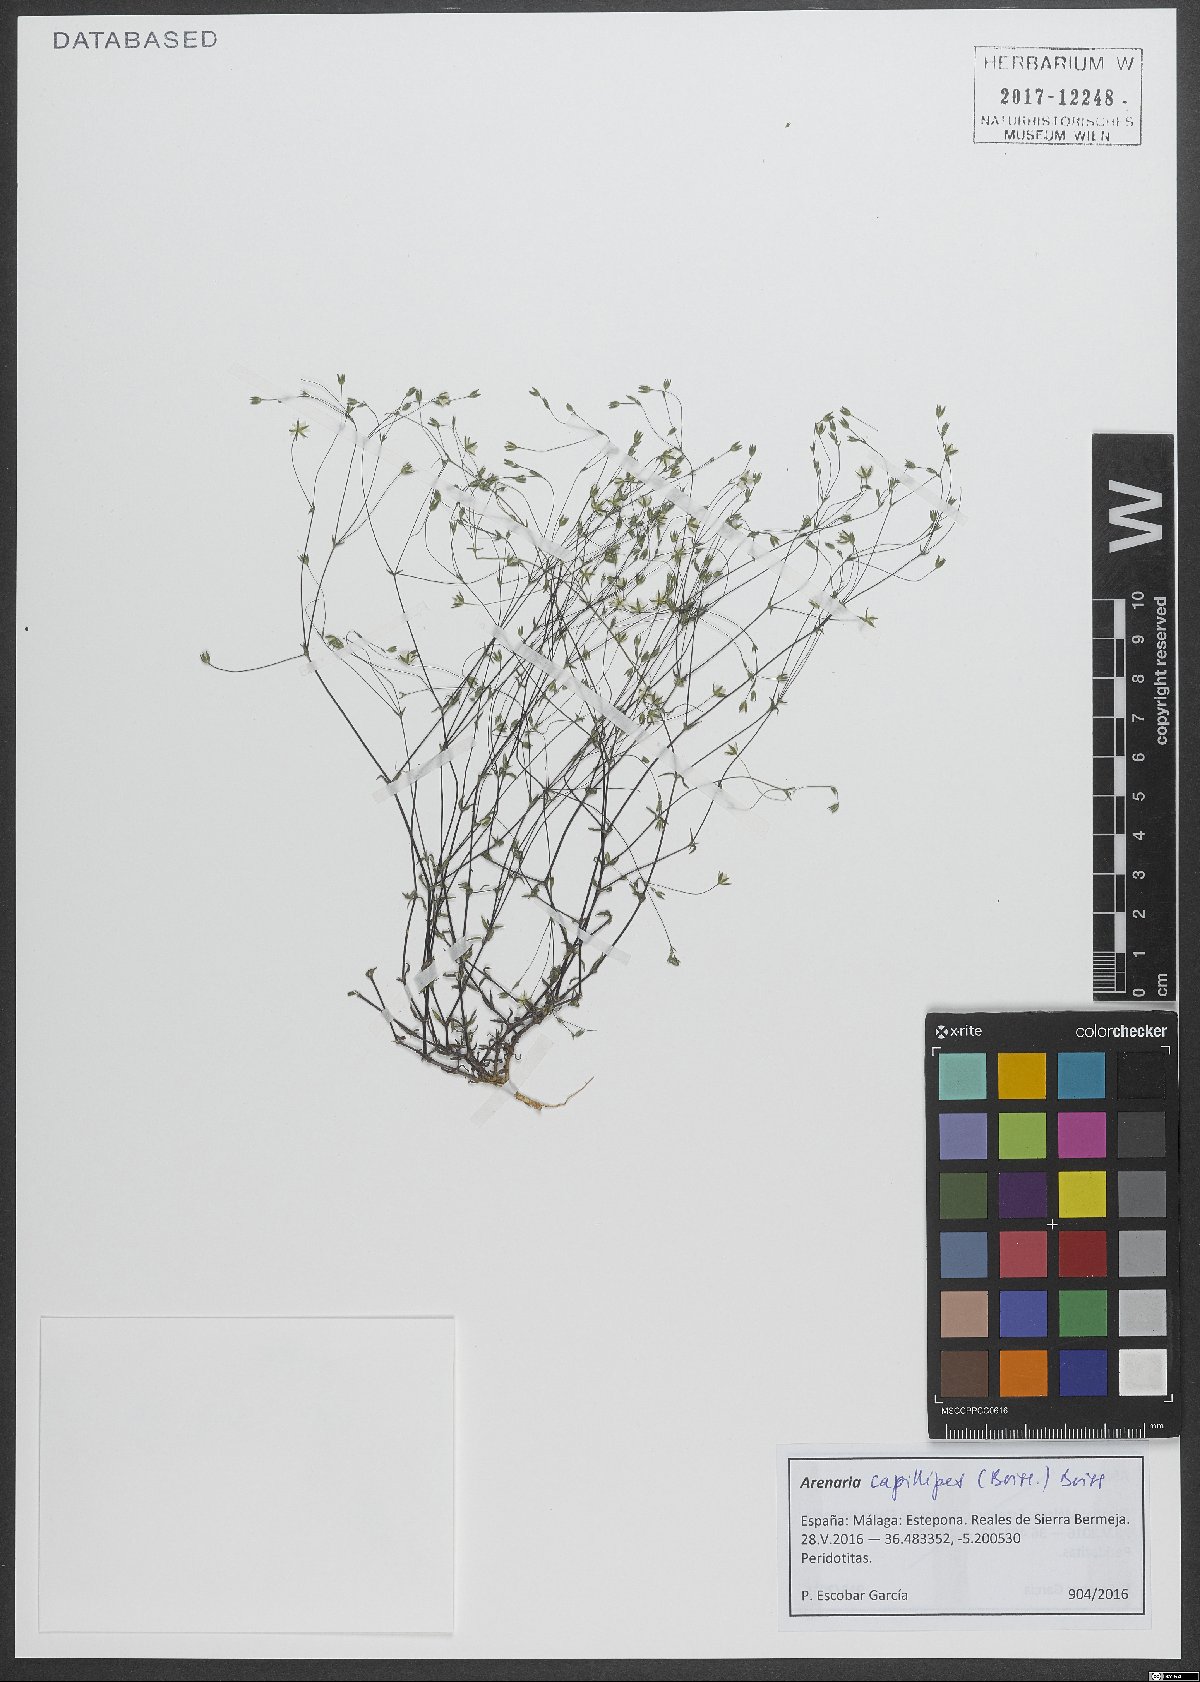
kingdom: Plantae
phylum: Tracheophyta
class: Magnoliopsida
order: Caryophyllales
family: Caryophyllaceae
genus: Arenaria
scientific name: Arenaria capillipes
